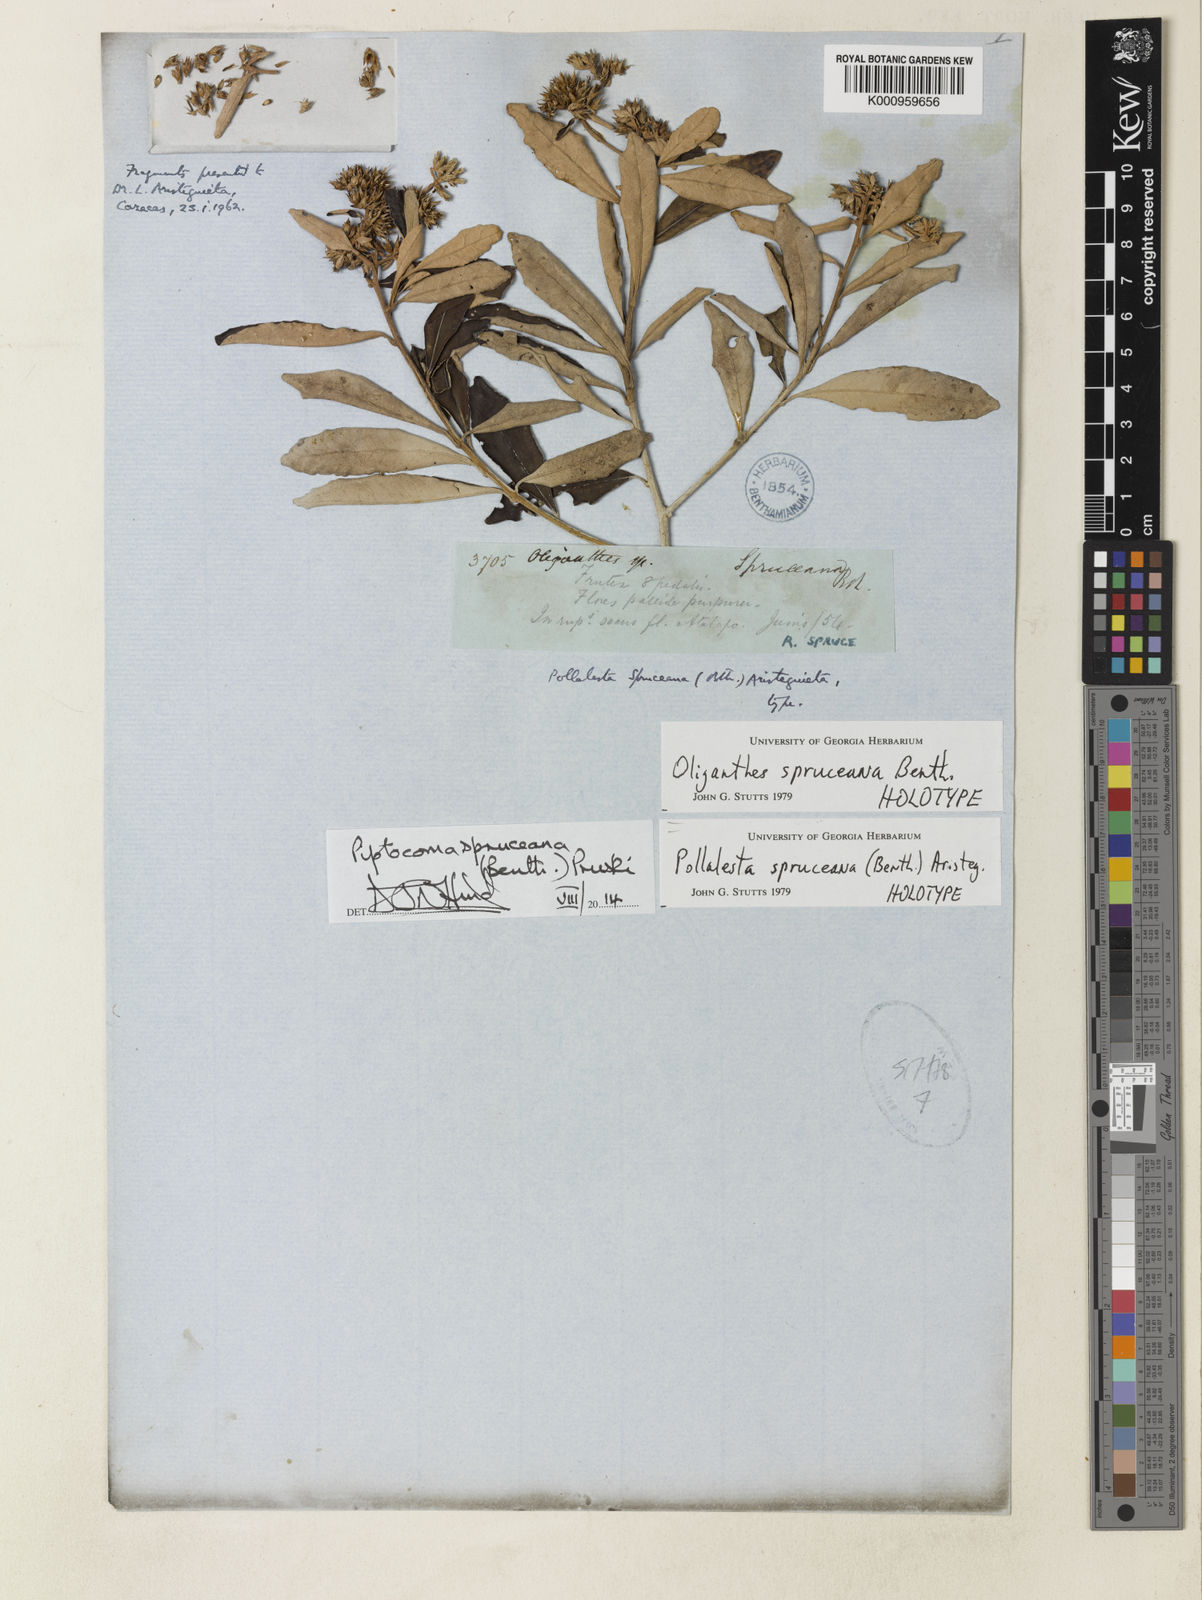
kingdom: Plantae
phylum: Tracheophyta
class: Magnoliopsida
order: Asterales
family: Asteraceae
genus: Piptocoma
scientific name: Piptocoma spruceana
